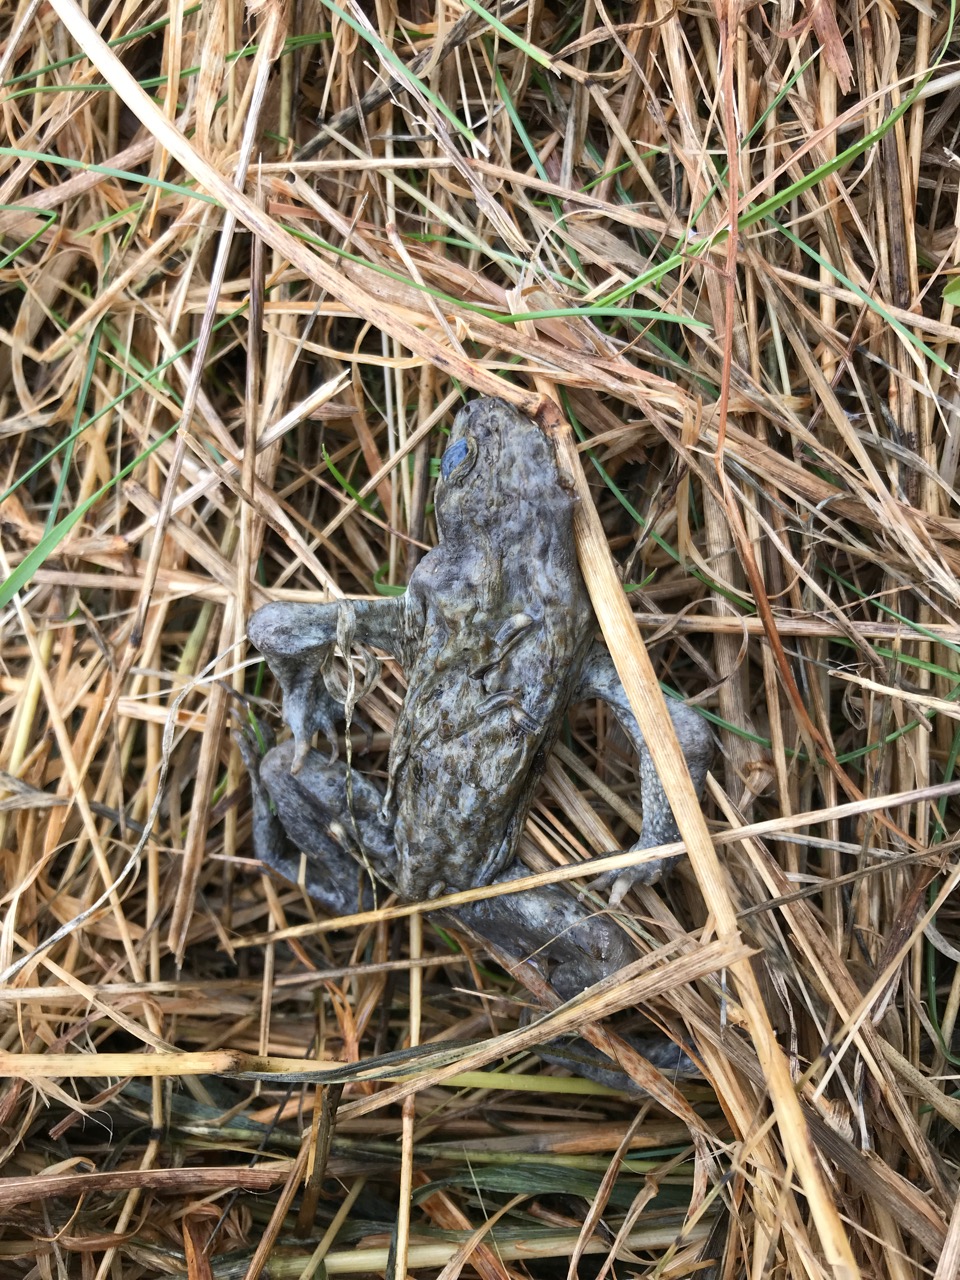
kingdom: Animalia
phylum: Chordata
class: Amphibia
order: Anura
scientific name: Anura
